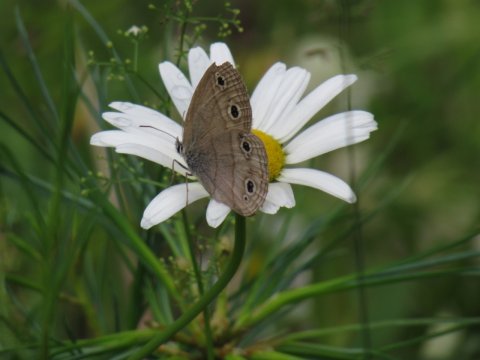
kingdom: Animalia
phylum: Arthropoda
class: Insecta
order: Lepidoptera
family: Nymphalidae
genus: Euptychia
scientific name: Euptychia cymela
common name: Little Wood Satyr
